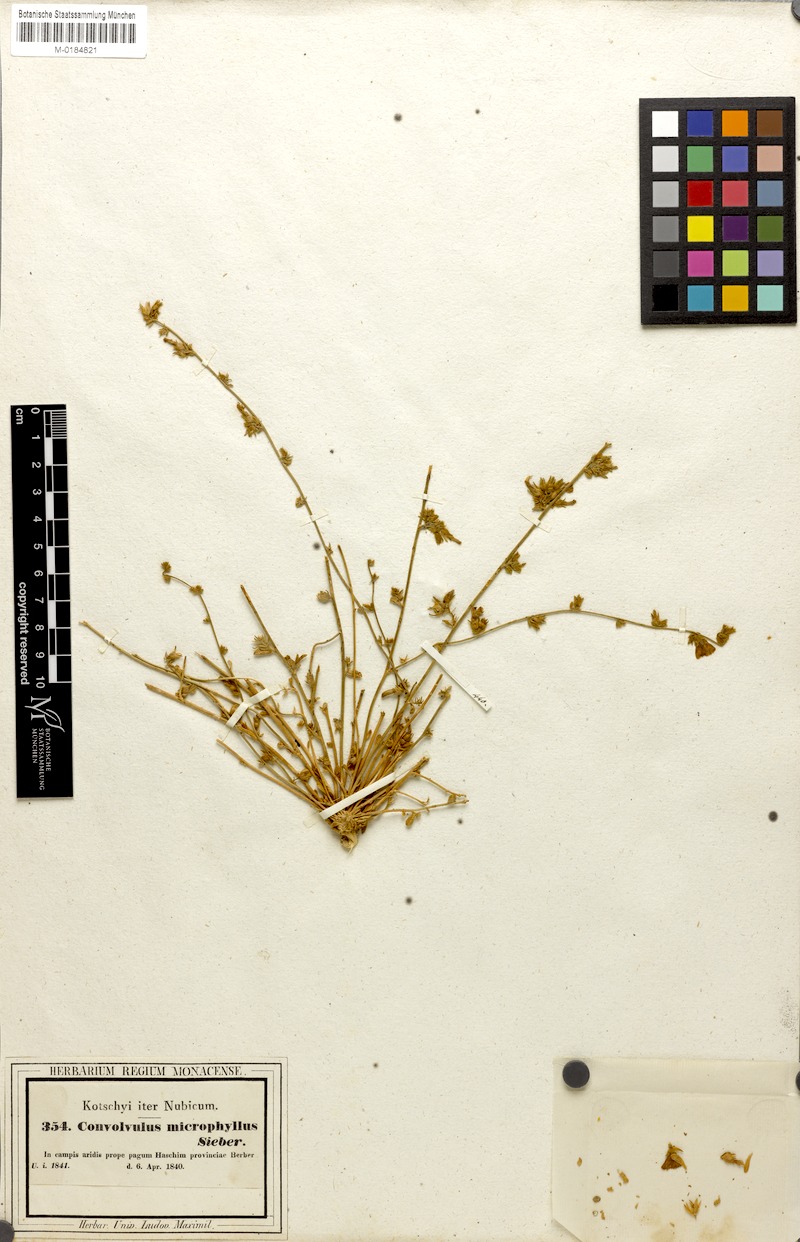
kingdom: Plantae
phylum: Tracheophyta
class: Magnoliopsida
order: Solanales
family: Convolvulaceae
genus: Convolvulus
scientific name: Convolvulus prostratus
